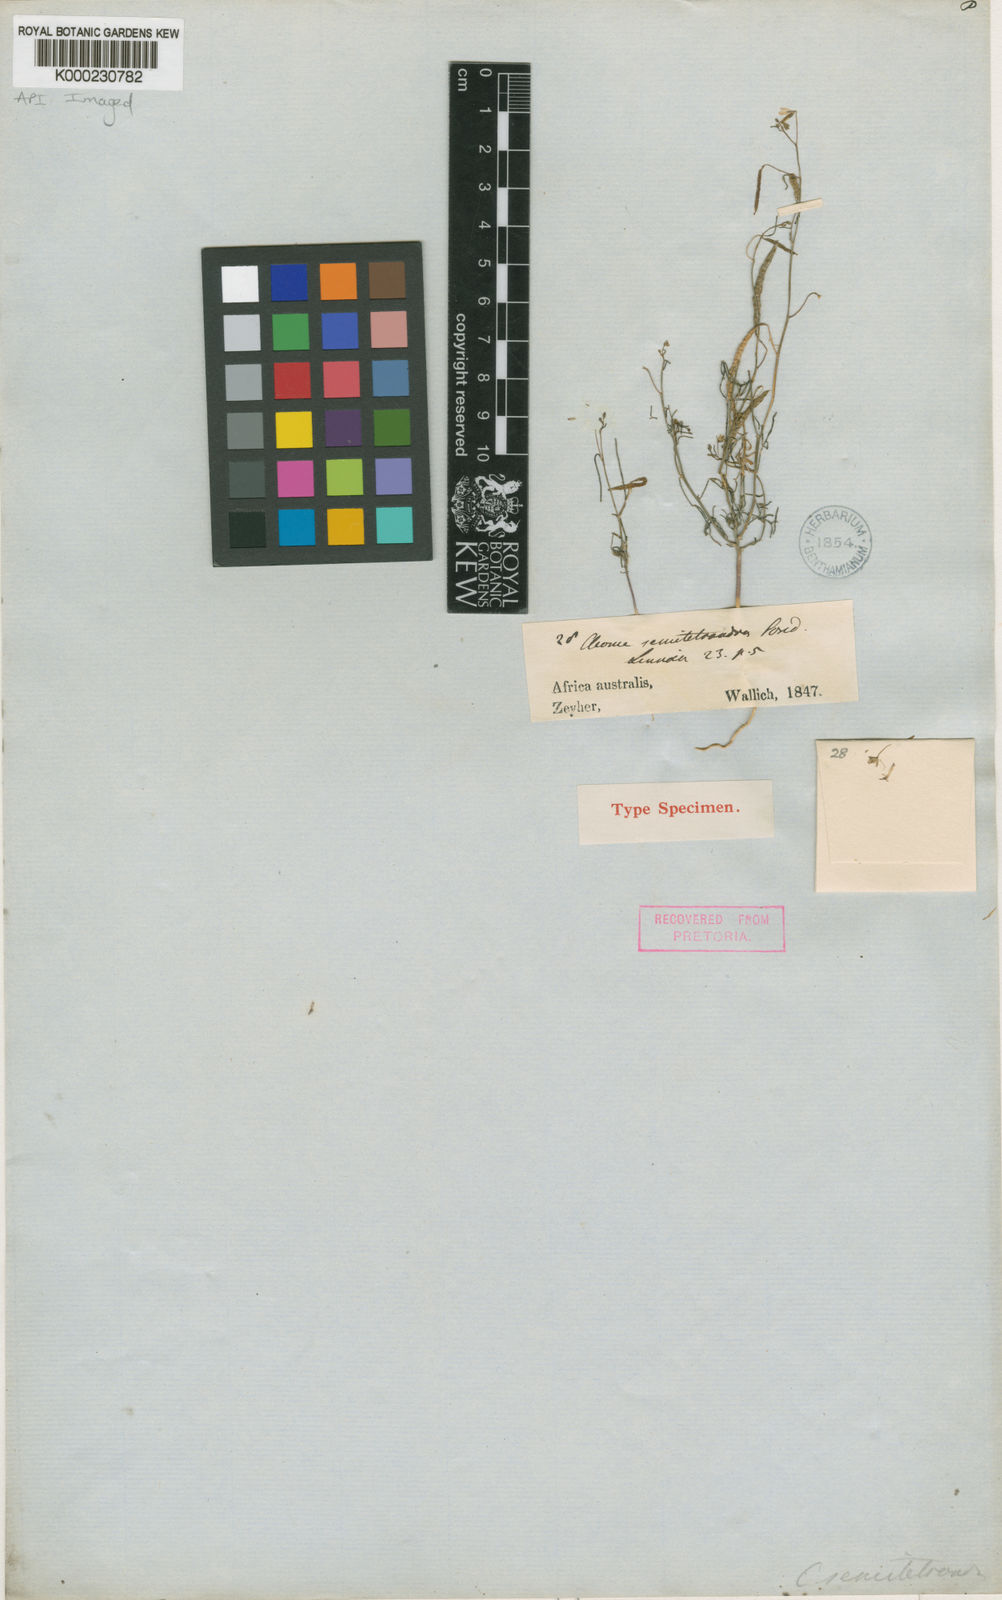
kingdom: Plantae
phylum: Tracheophyta
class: Magnoliopsida
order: Brassicales
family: Cleomaceae
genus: Coalisina
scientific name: Coalisina semitetrandra
